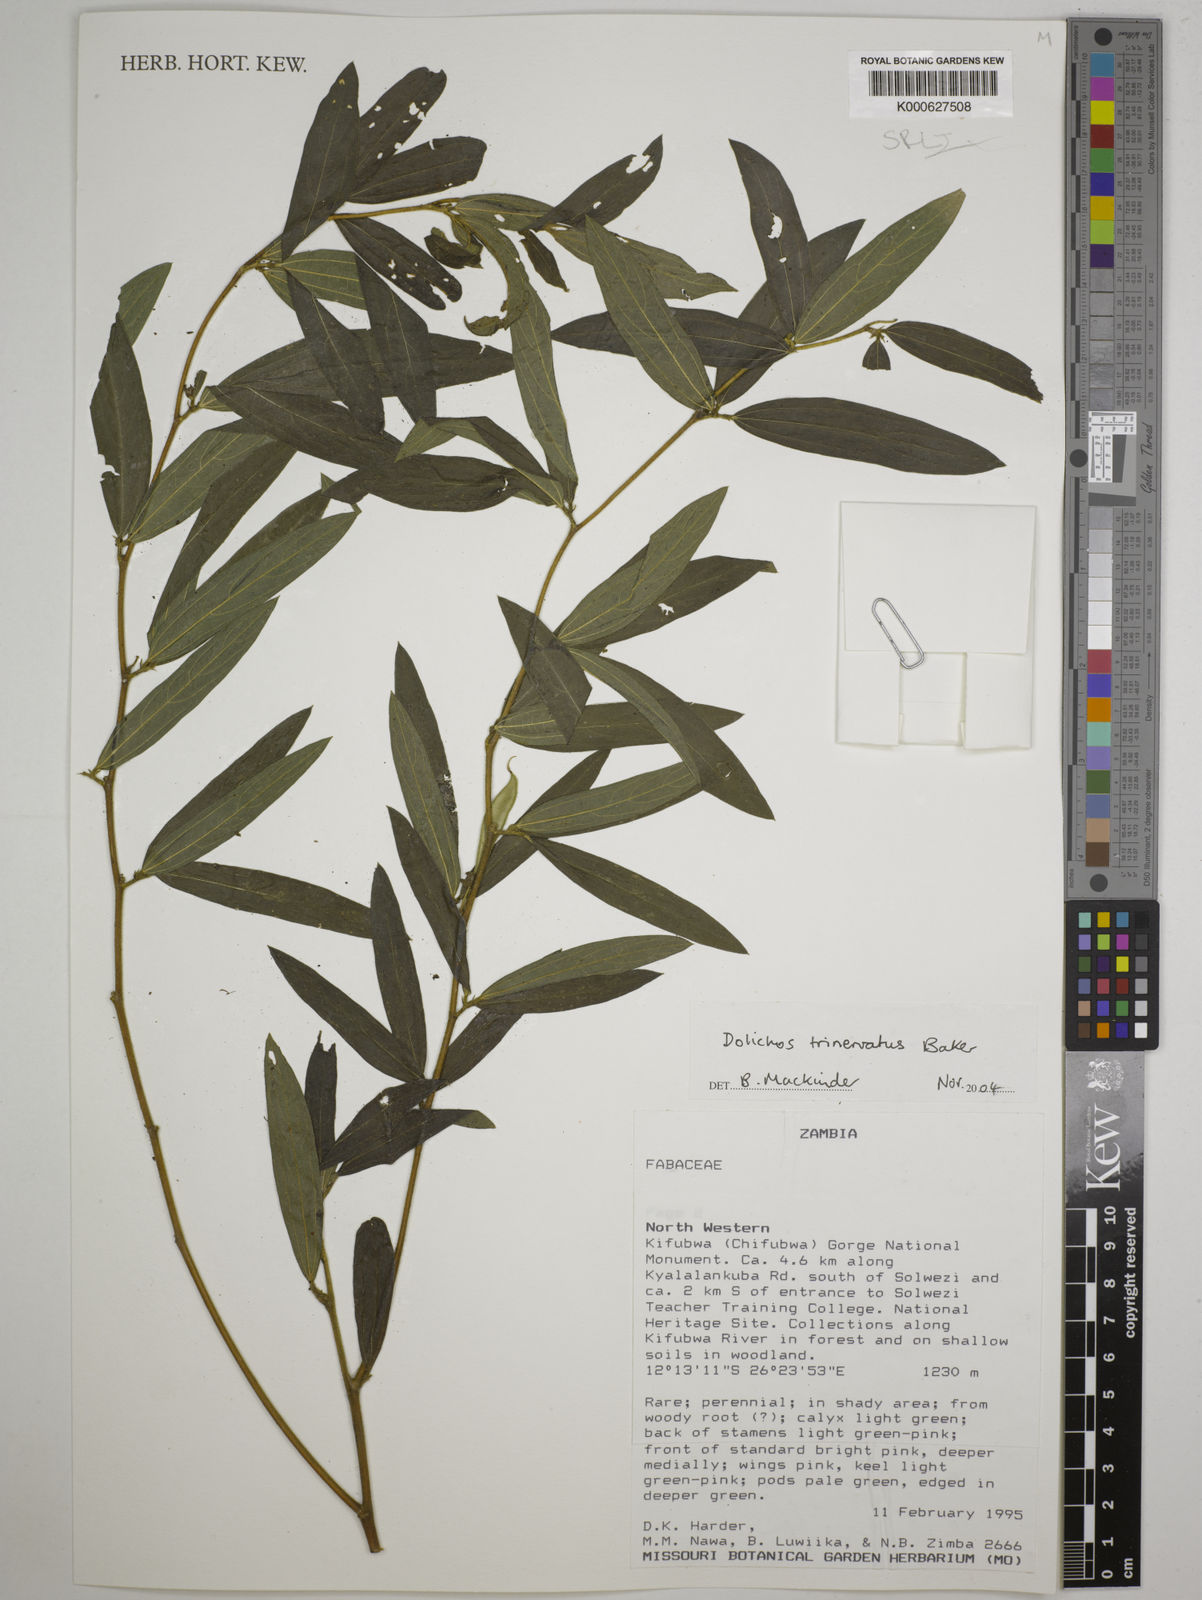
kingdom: Plantae
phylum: Tracheophyta
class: Magnoliopsida
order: Fabales
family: Fabaceae
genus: Dolichos
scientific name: Dolichos trinervatus
